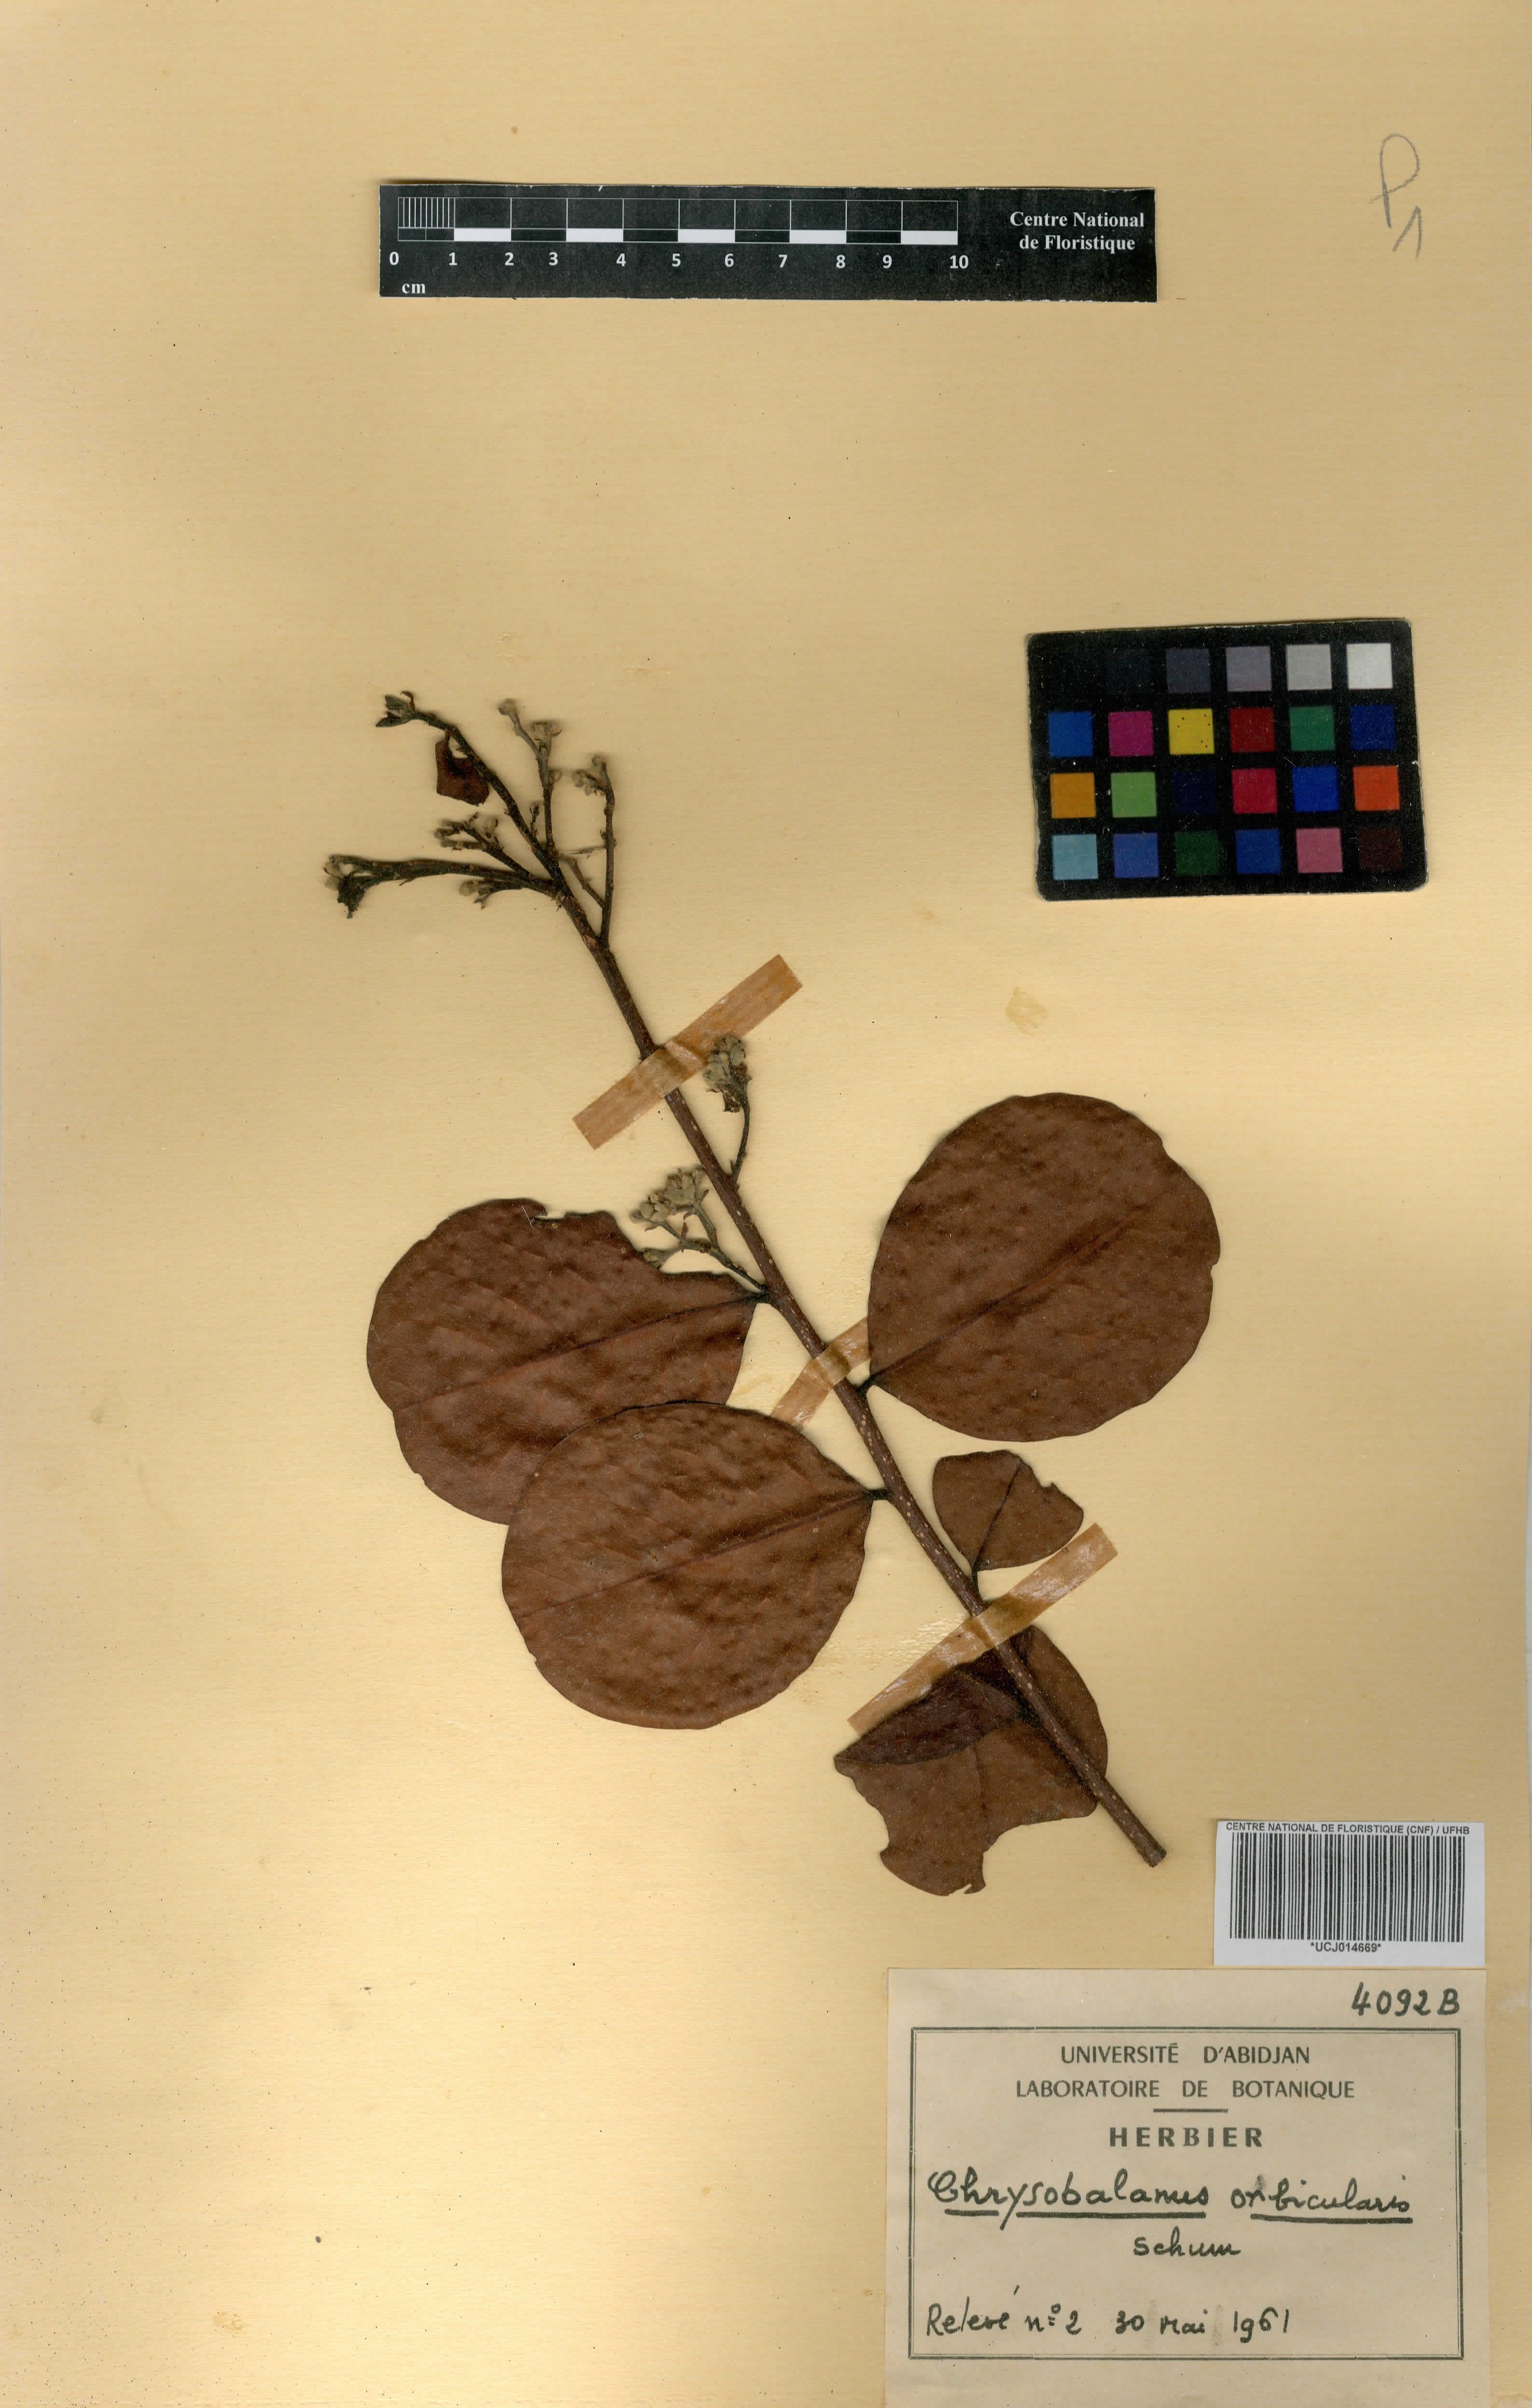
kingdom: Plantae
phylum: Tracheophyta
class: Magnoliopsida
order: Malpighiales
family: Chrysobalanaceae
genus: Chrysobalanus
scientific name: Chrysobalanus icaco
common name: Coco plum
